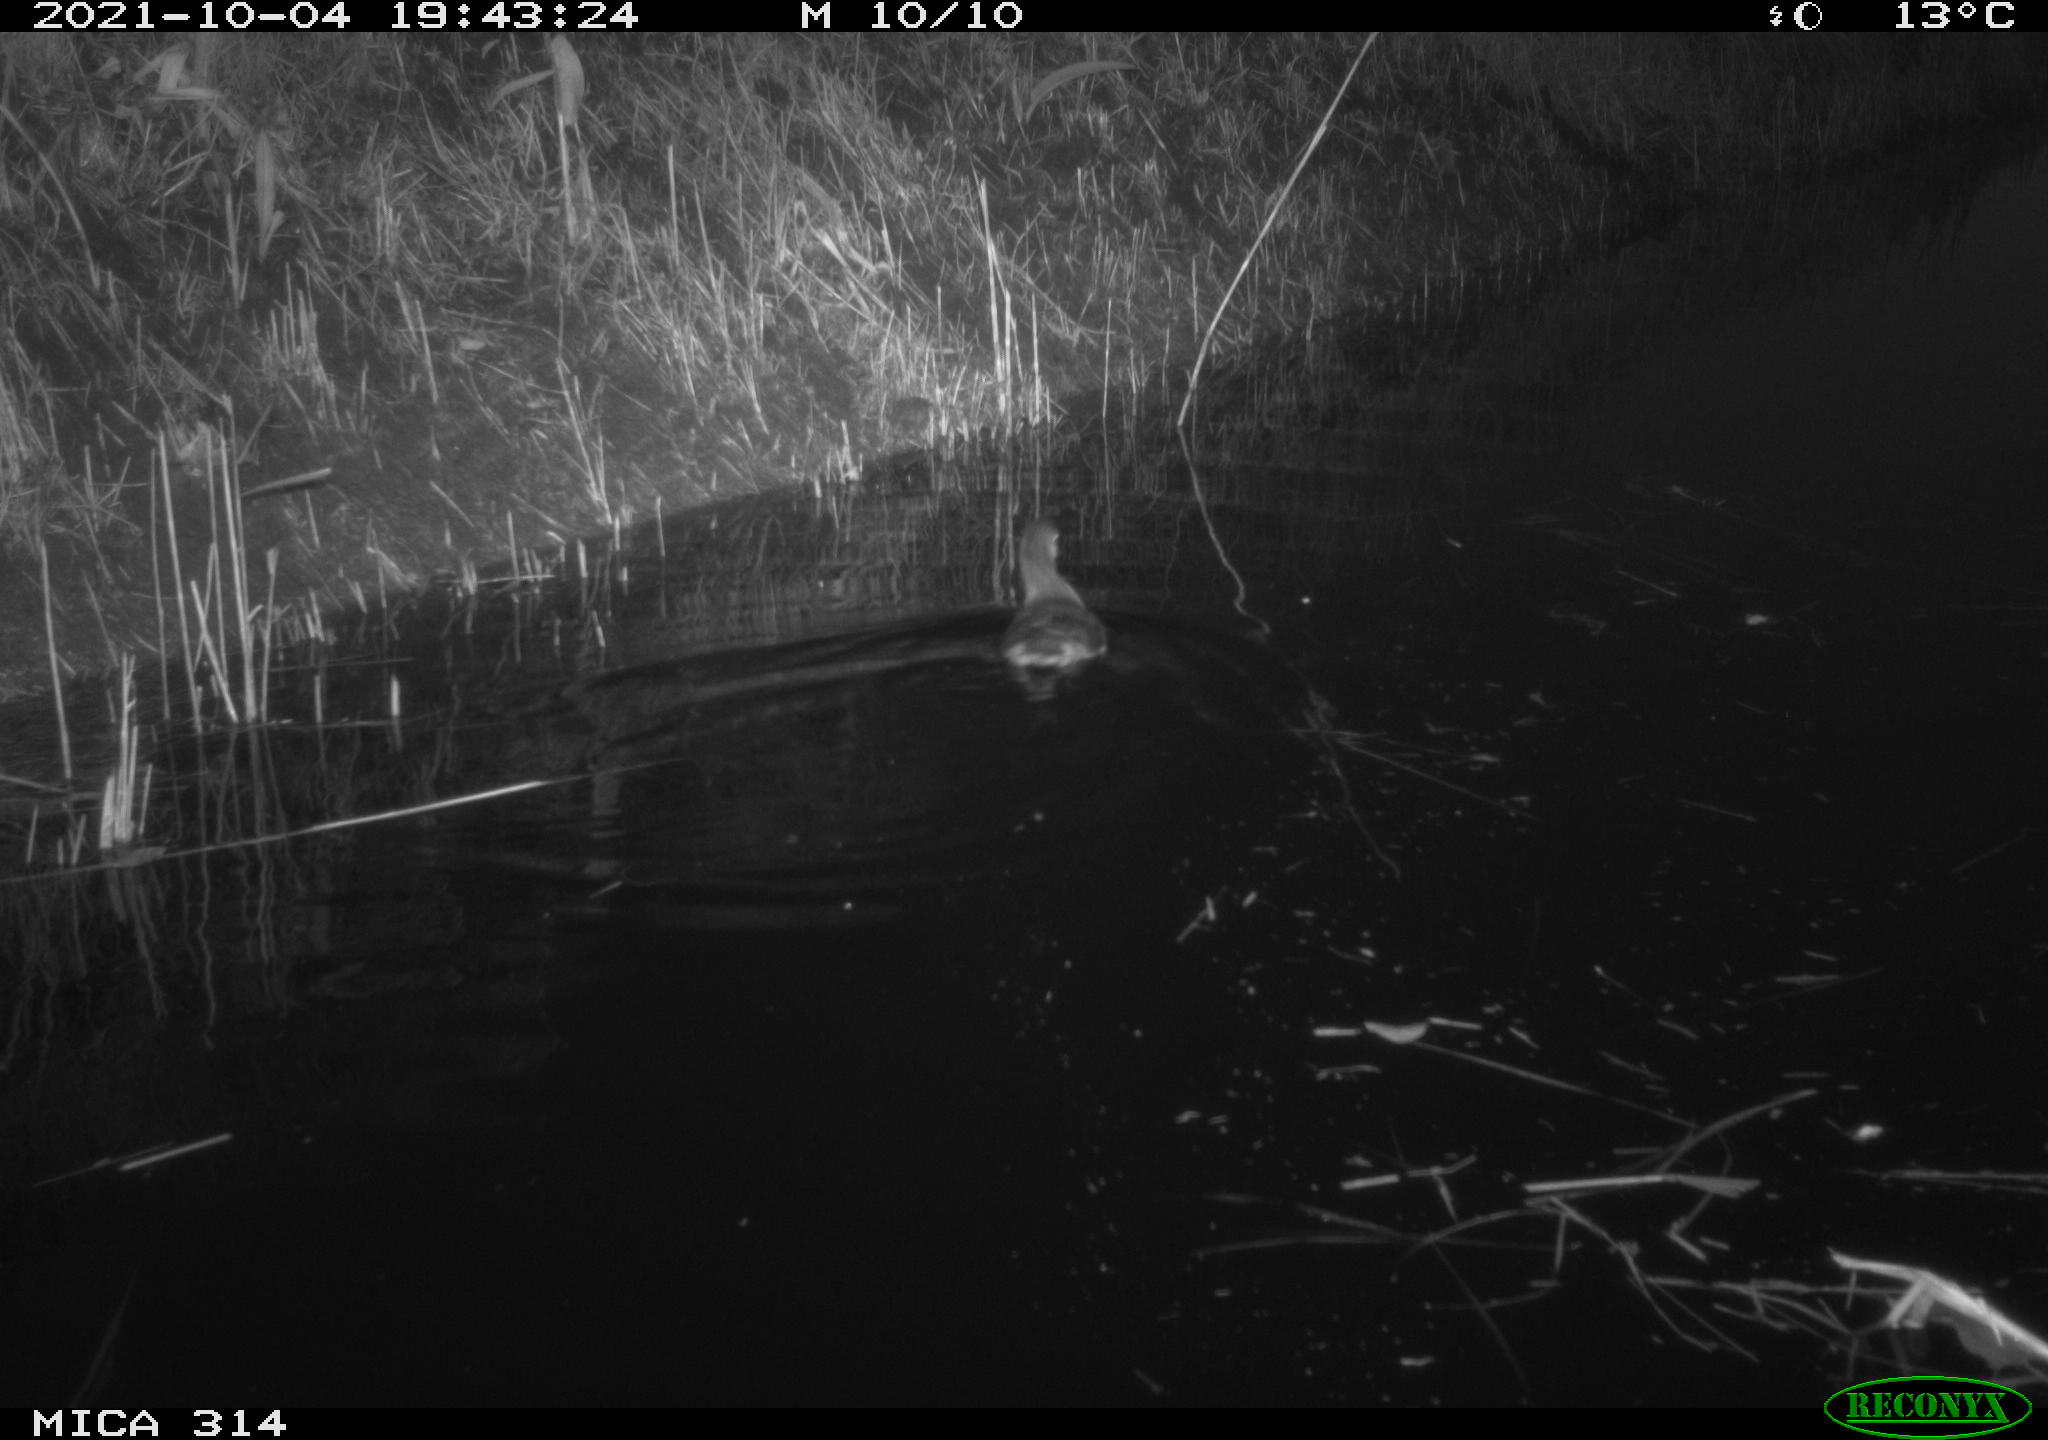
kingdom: Animalia
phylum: Chordata
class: Aves
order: Anseriformes
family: Anatidae
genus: Anas
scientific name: Anas
